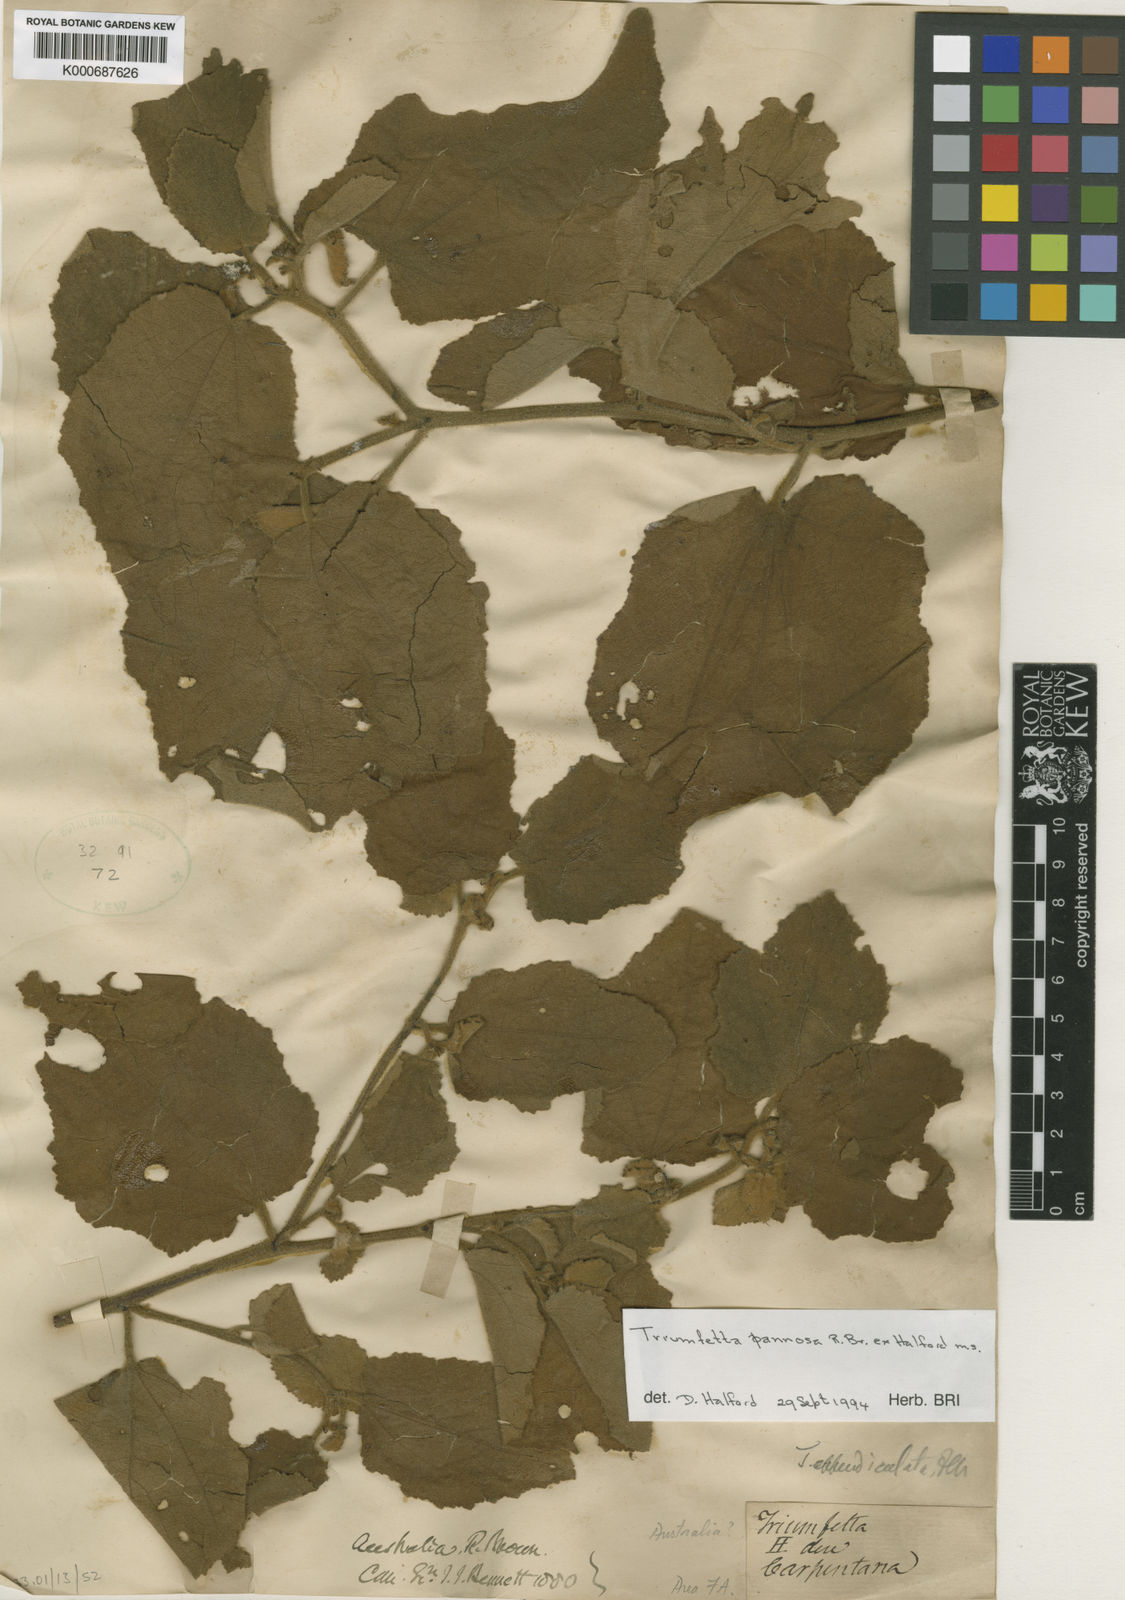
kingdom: Plantae
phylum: Tracheophyta
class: Magnoliopsida
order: Malvales
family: Malvaceae
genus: Triumfetta
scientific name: Triumfetta pannosa
